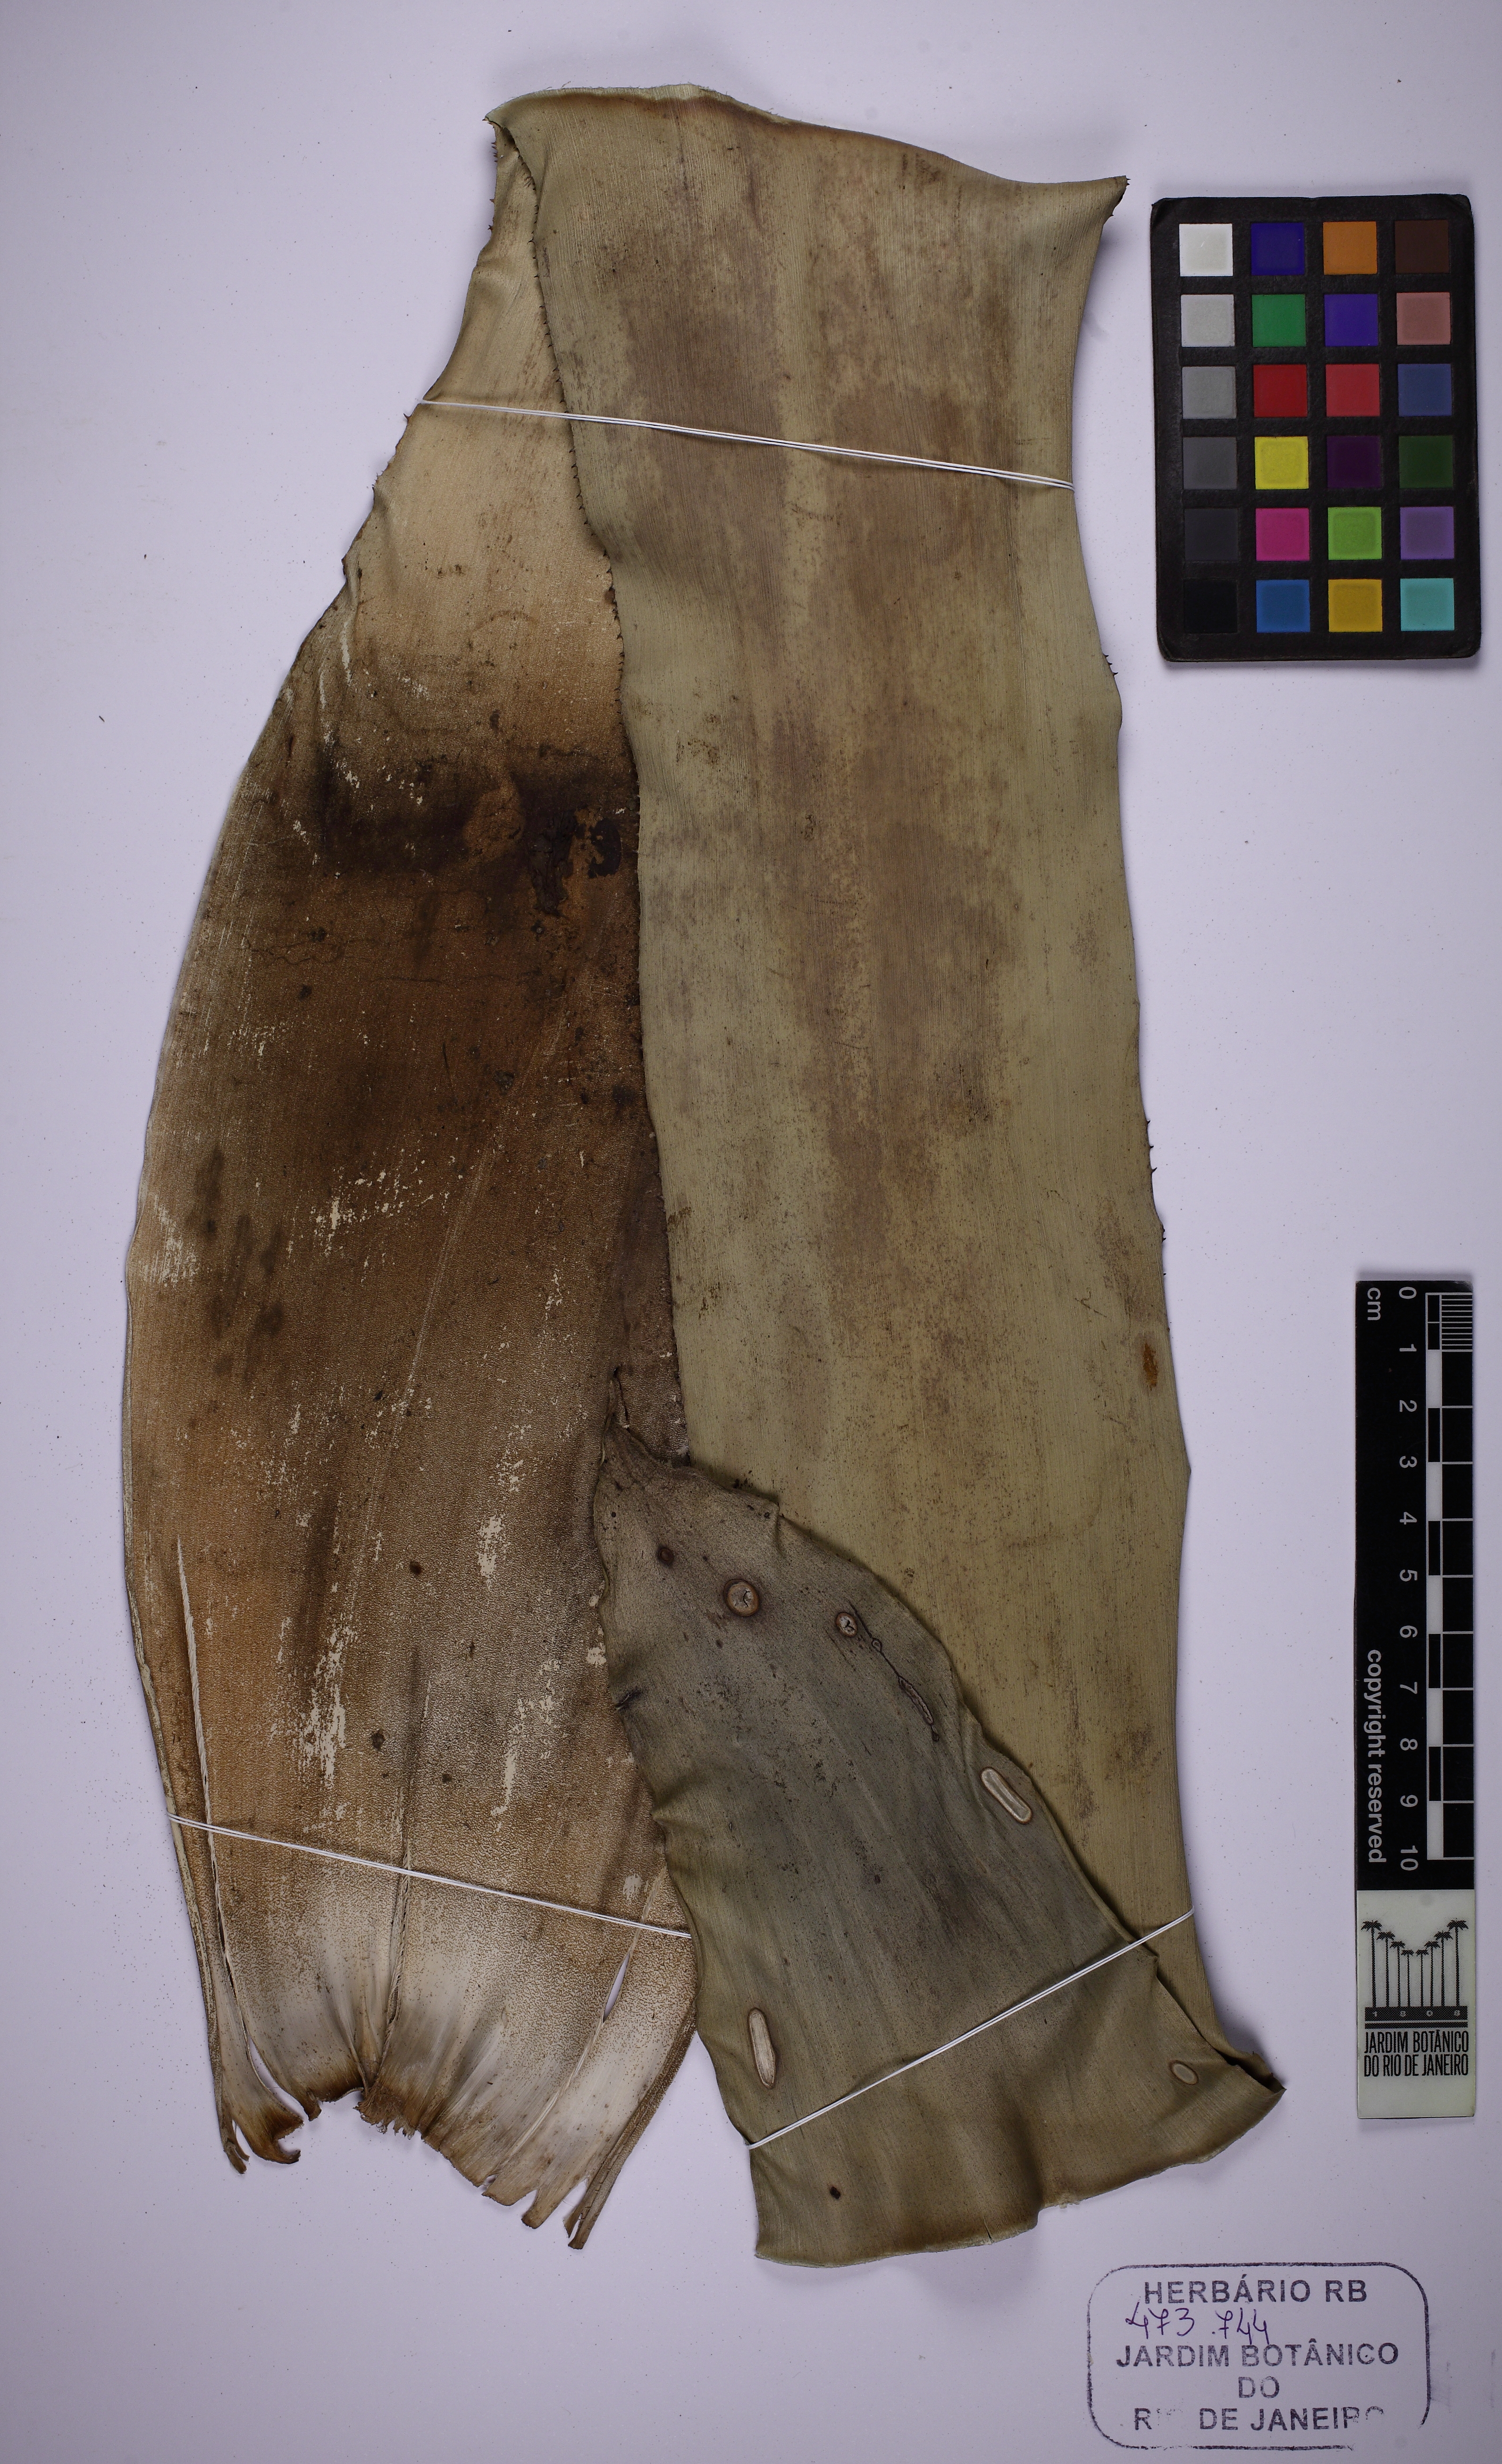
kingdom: Plantae
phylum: Tracheophyta
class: Liliopsida
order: Poales
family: Bromeliaceae
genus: Hohenbergia
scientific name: Hohenbergia augusta
